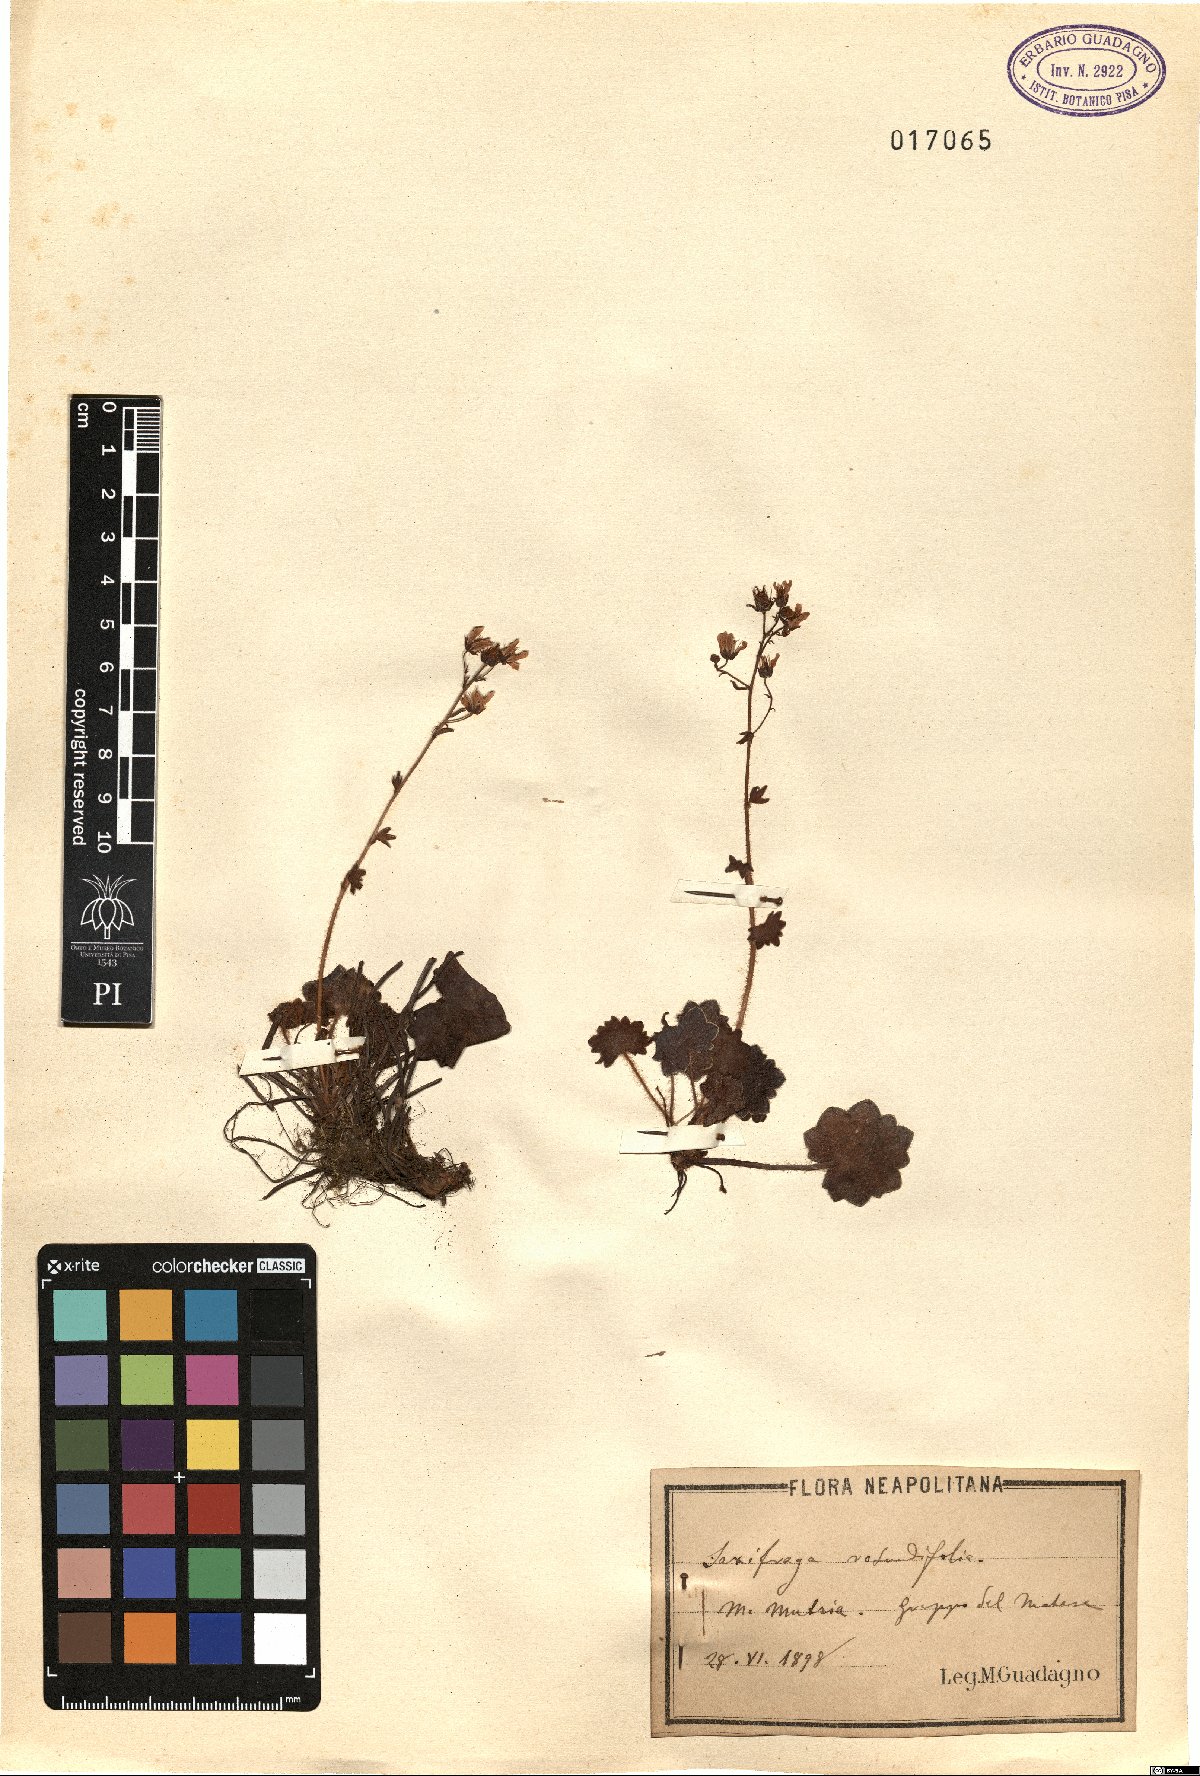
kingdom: Plantae
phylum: Tracheophyta
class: Magnoliopsida
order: Saxifragales
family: Saxifragaceae
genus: Saxifraga
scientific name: Saxifraga rotundifolia
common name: Round-leaved saxifrage
